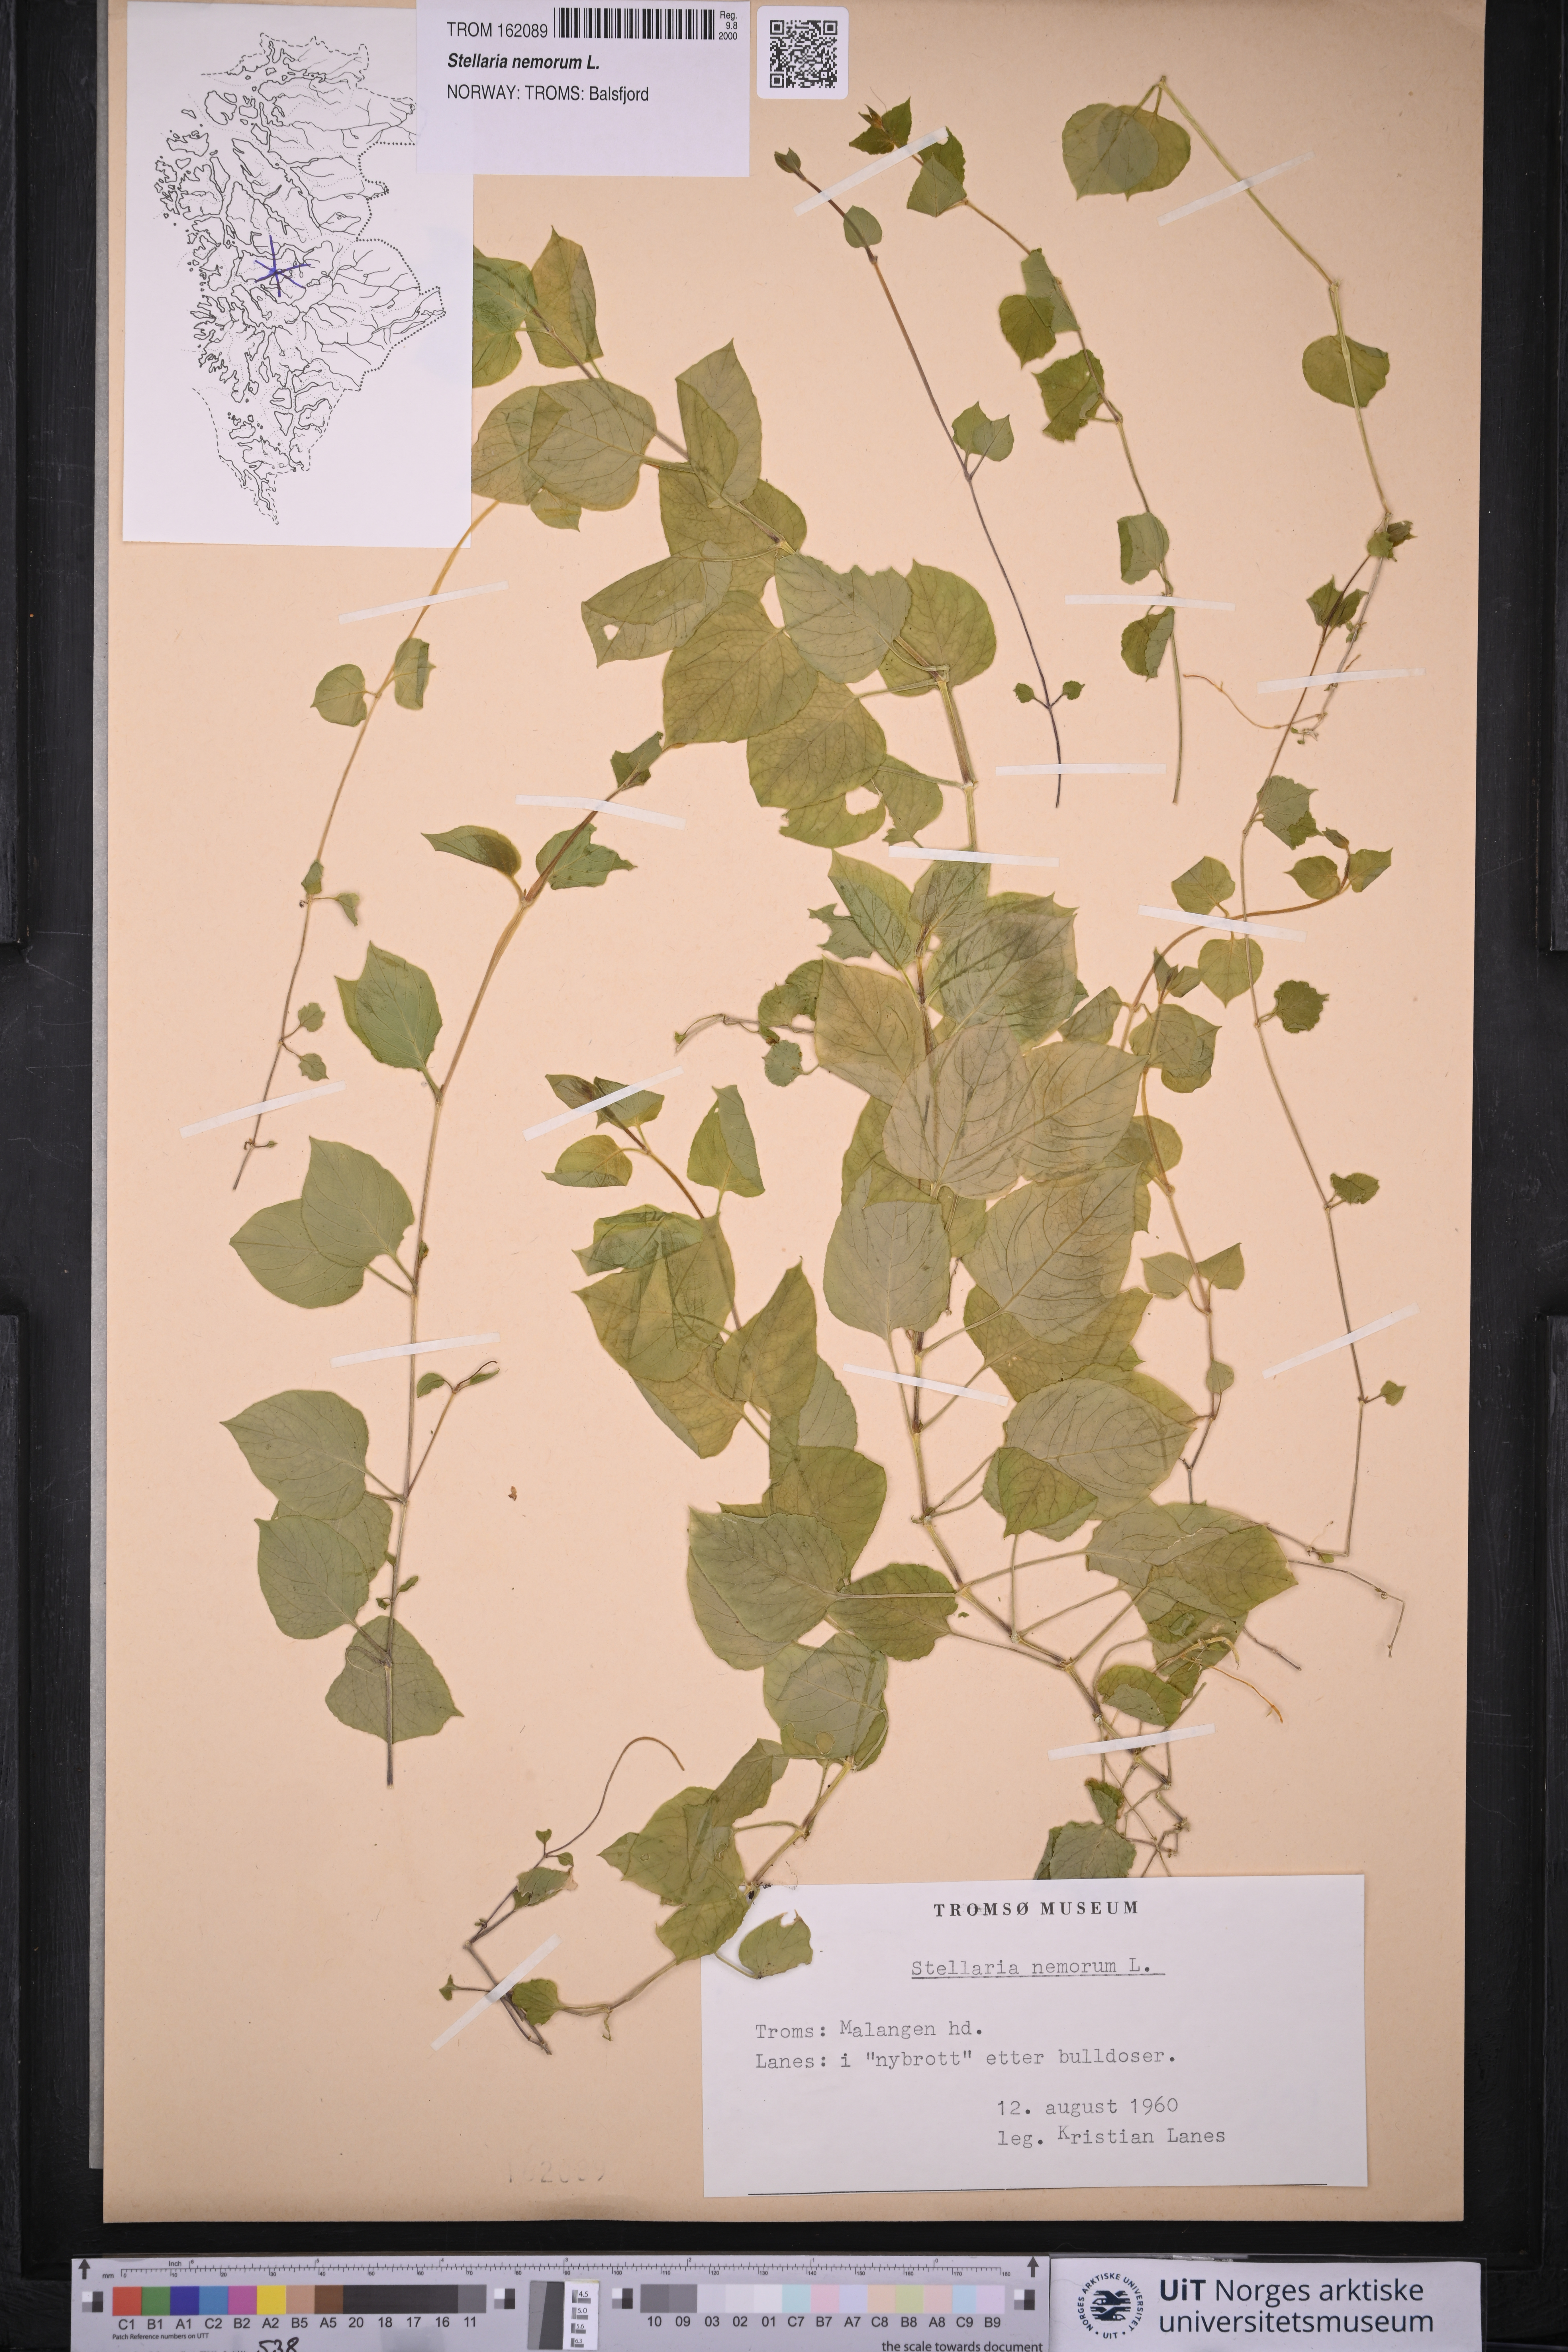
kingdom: Plantae
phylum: Tracheophyta
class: Magnoliopsida
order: Caryophyllales
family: Caryophyllaceae
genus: Stellaria
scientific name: Stellaria nemorum
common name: Wood stitchwort
